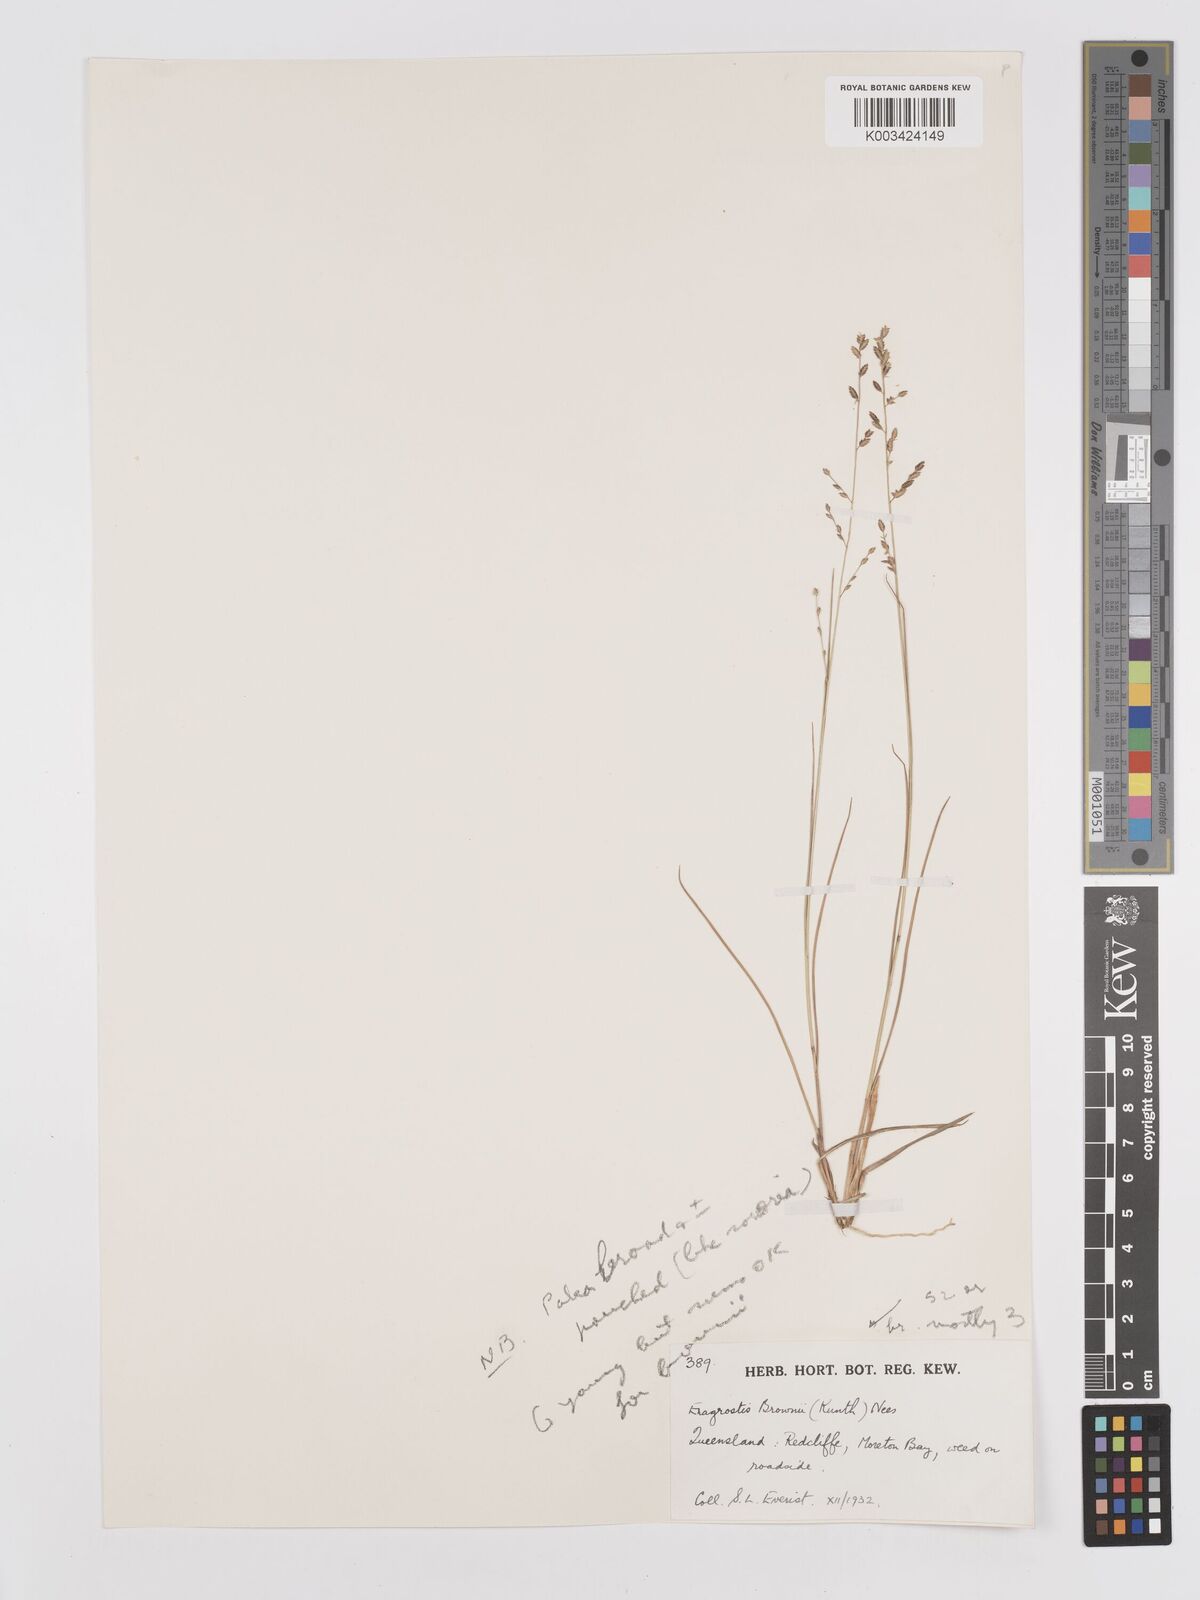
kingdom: Plantae
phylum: Tracheophyta
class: Liliopsida
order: Poales
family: Poaceae
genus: Eragrostis
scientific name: Eragrostis brownii
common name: Lovegrass
